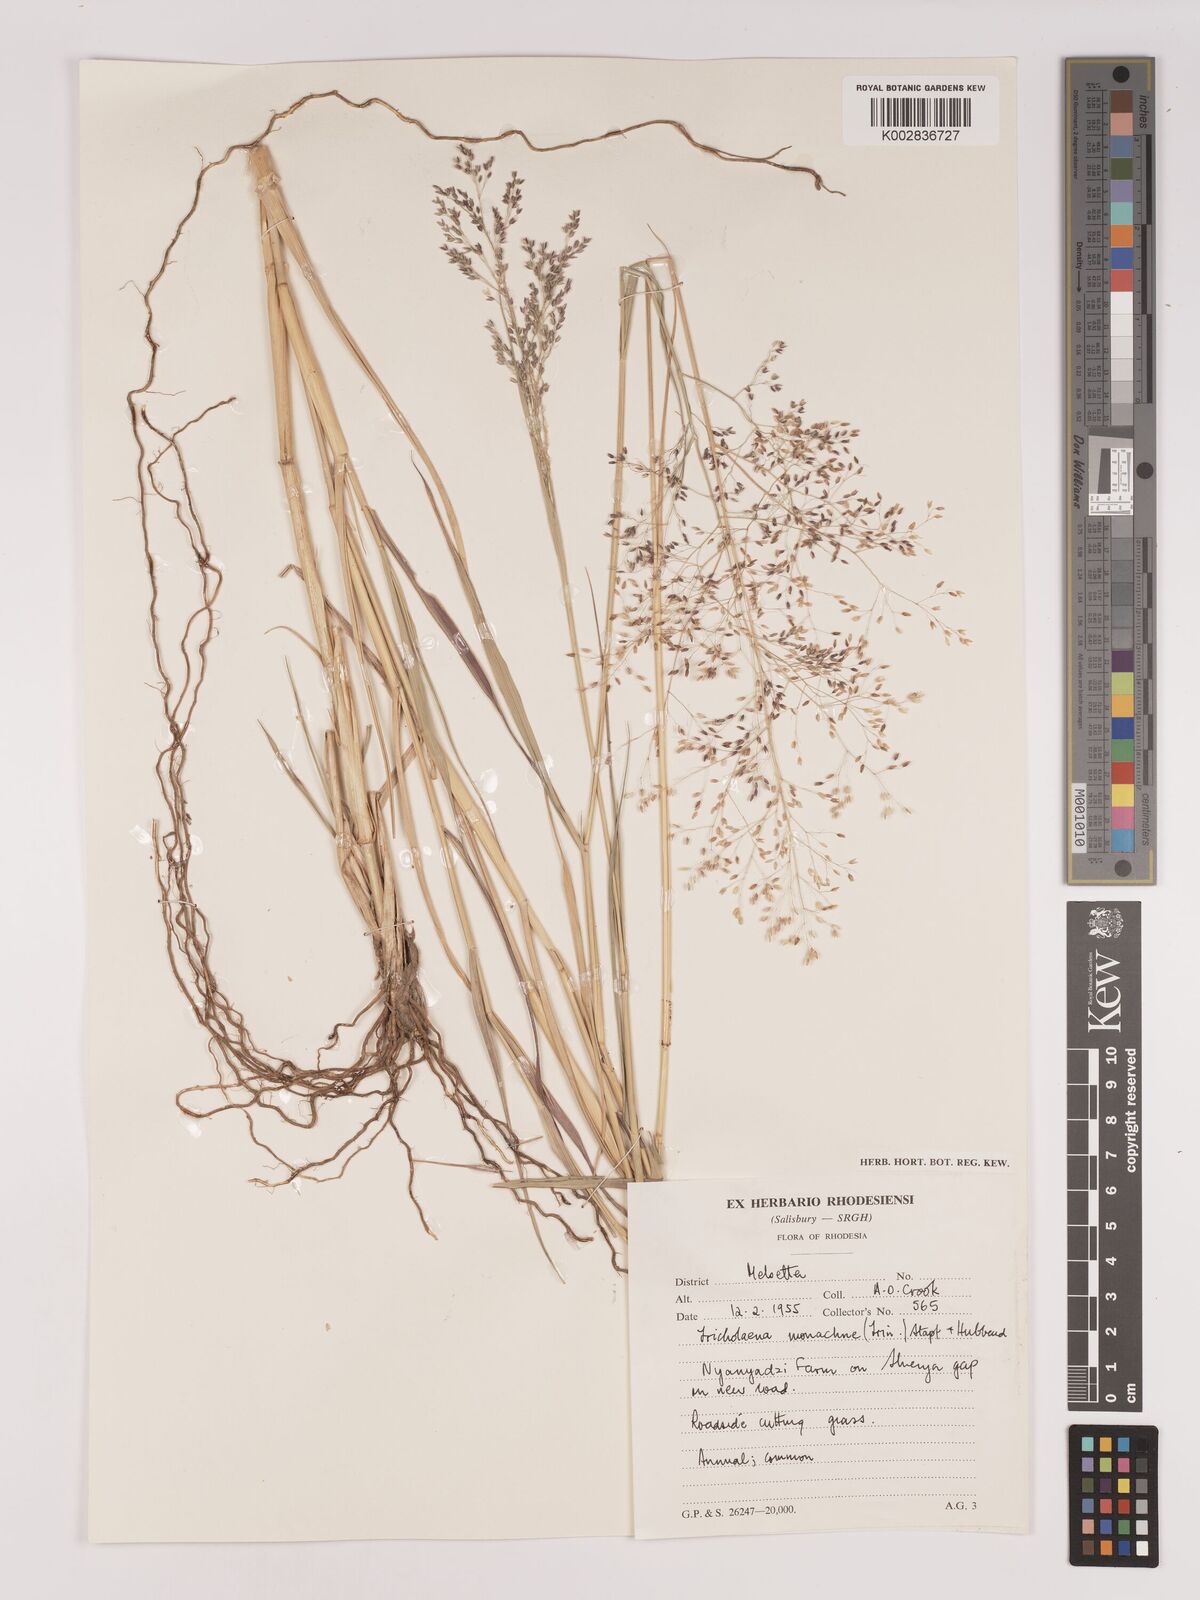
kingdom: Plantae
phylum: Tracheophyta
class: Liliopsida
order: Poales
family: Poaceae
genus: Tricholaena
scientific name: Tricholaena monachne
